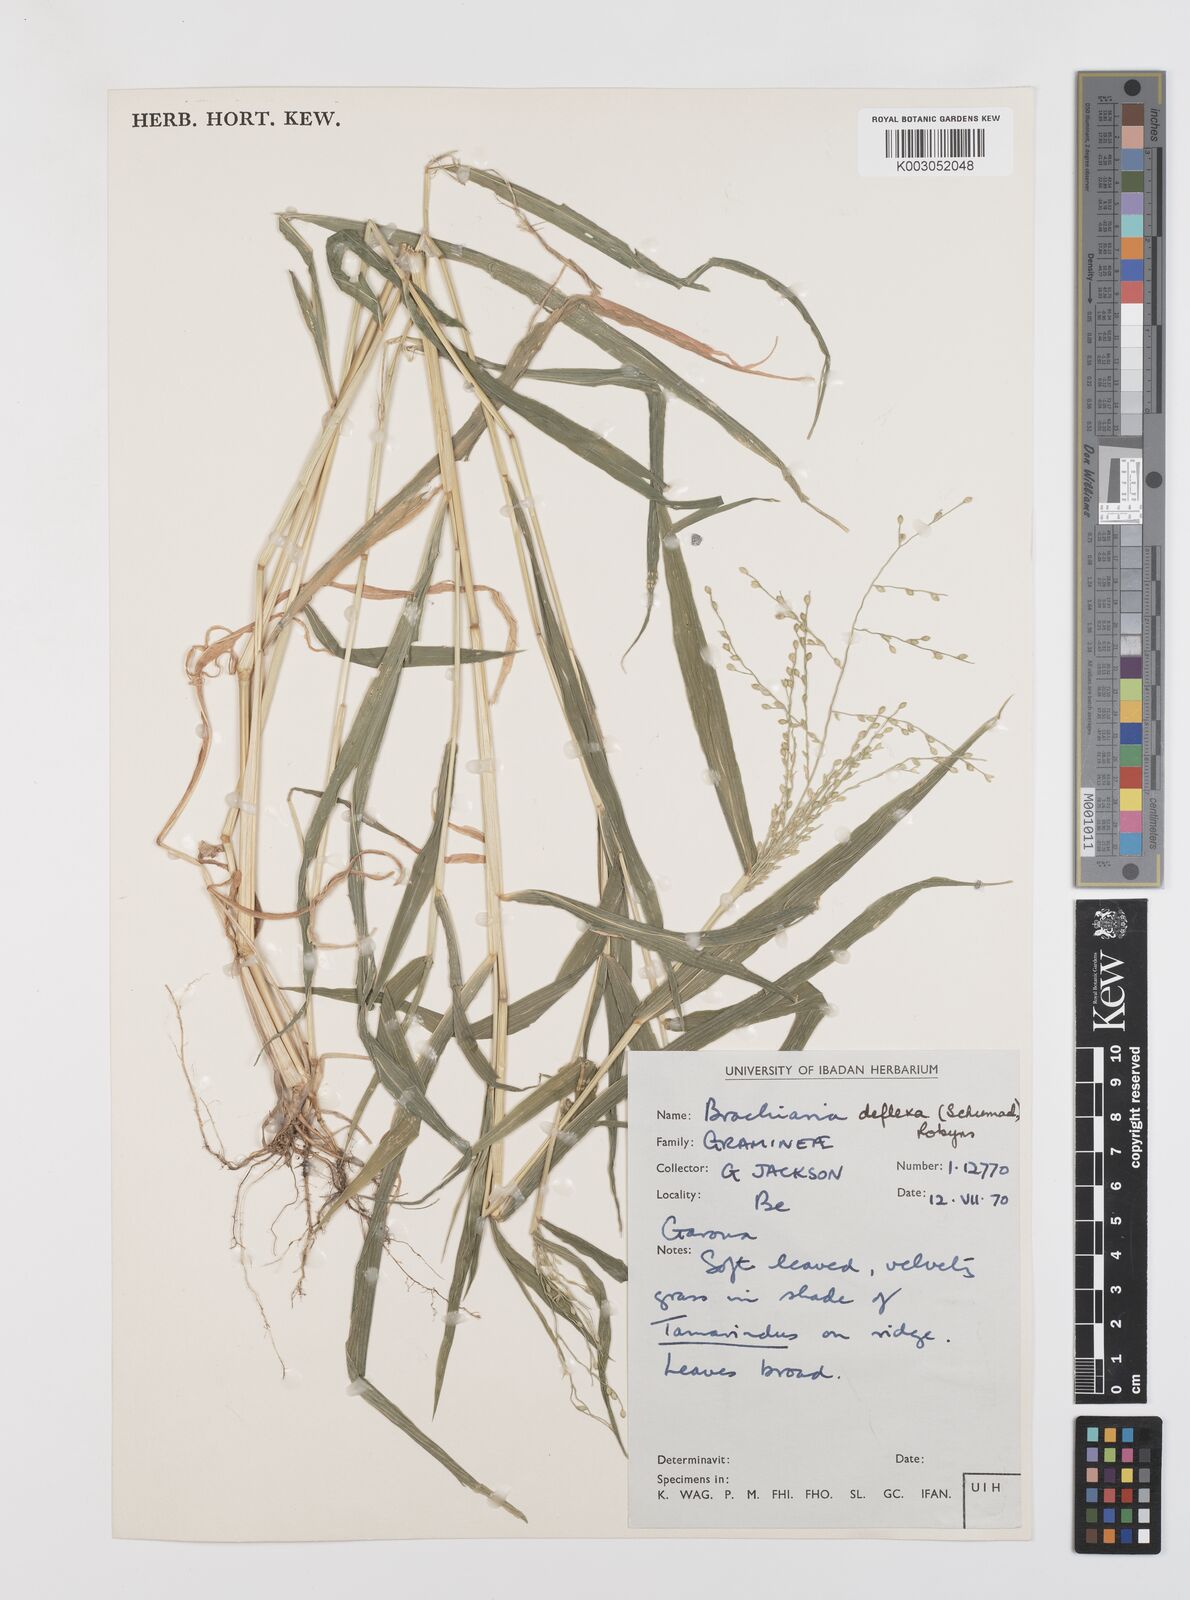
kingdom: Plantae
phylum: Tracheophyta
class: Liliopsida
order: Poales
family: Poaceae
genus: Urochloa
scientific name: Urochloa deflexa
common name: Guinea millet
